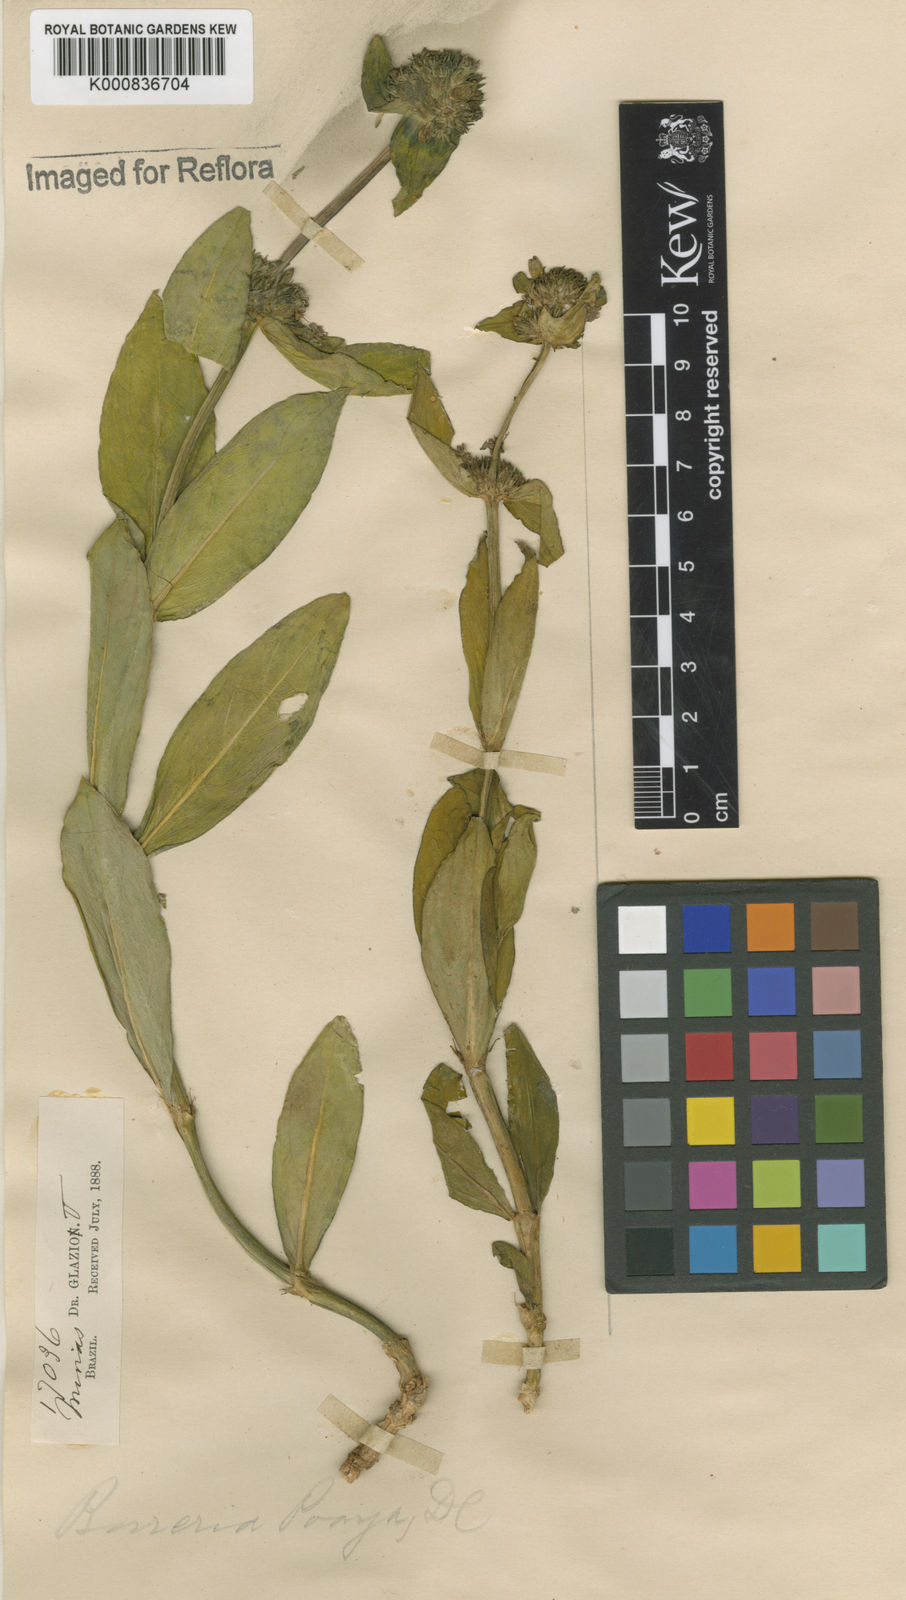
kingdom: Plantae
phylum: Tracheophyta
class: Magnoliopsida
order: Gentianales
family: Rubiaceae
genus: Spermacoce
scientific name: Spermacoce poaya
